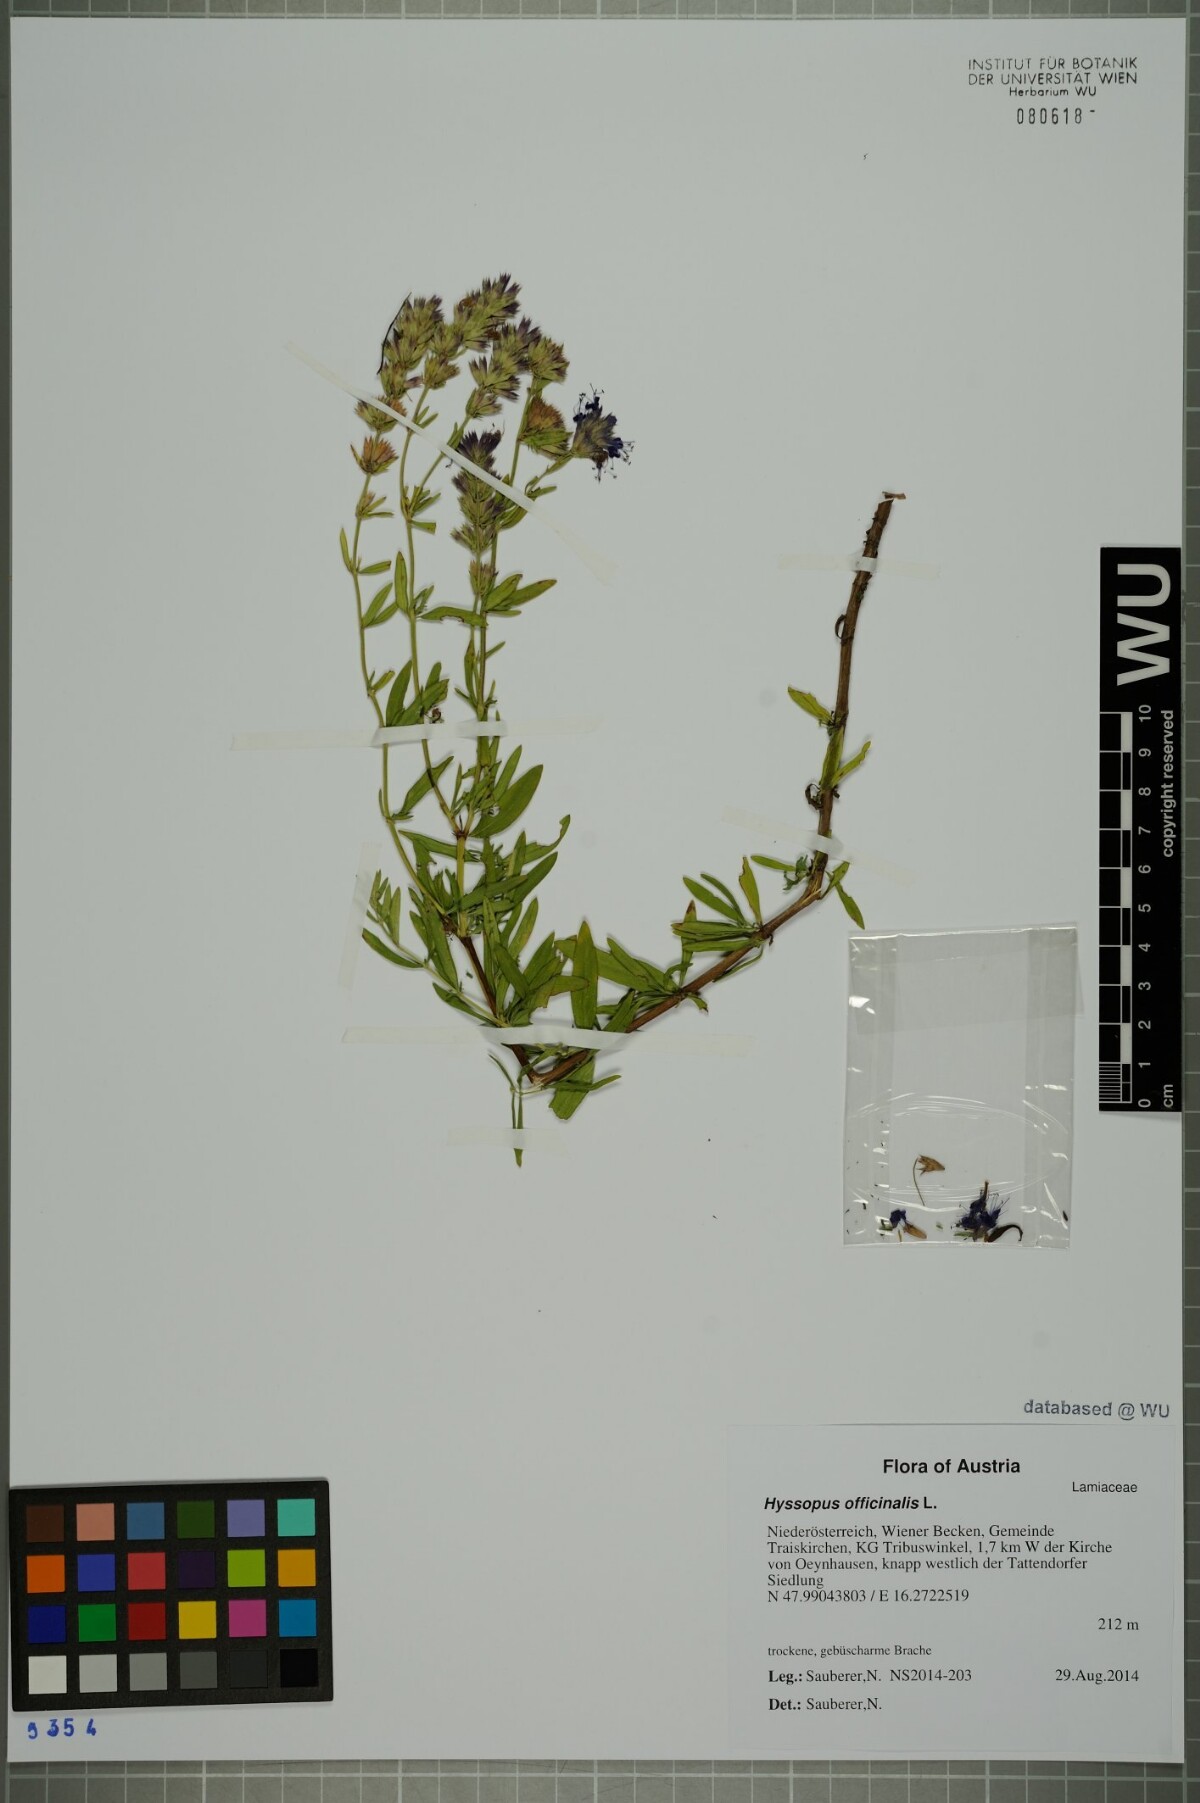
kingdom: Plantae
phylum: Tracheophyta
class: Magnoliopsida
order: Lamiales
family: Lamiaceae
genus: Hyssopus
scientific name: Hyssopus officinalis
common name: Hyssop
